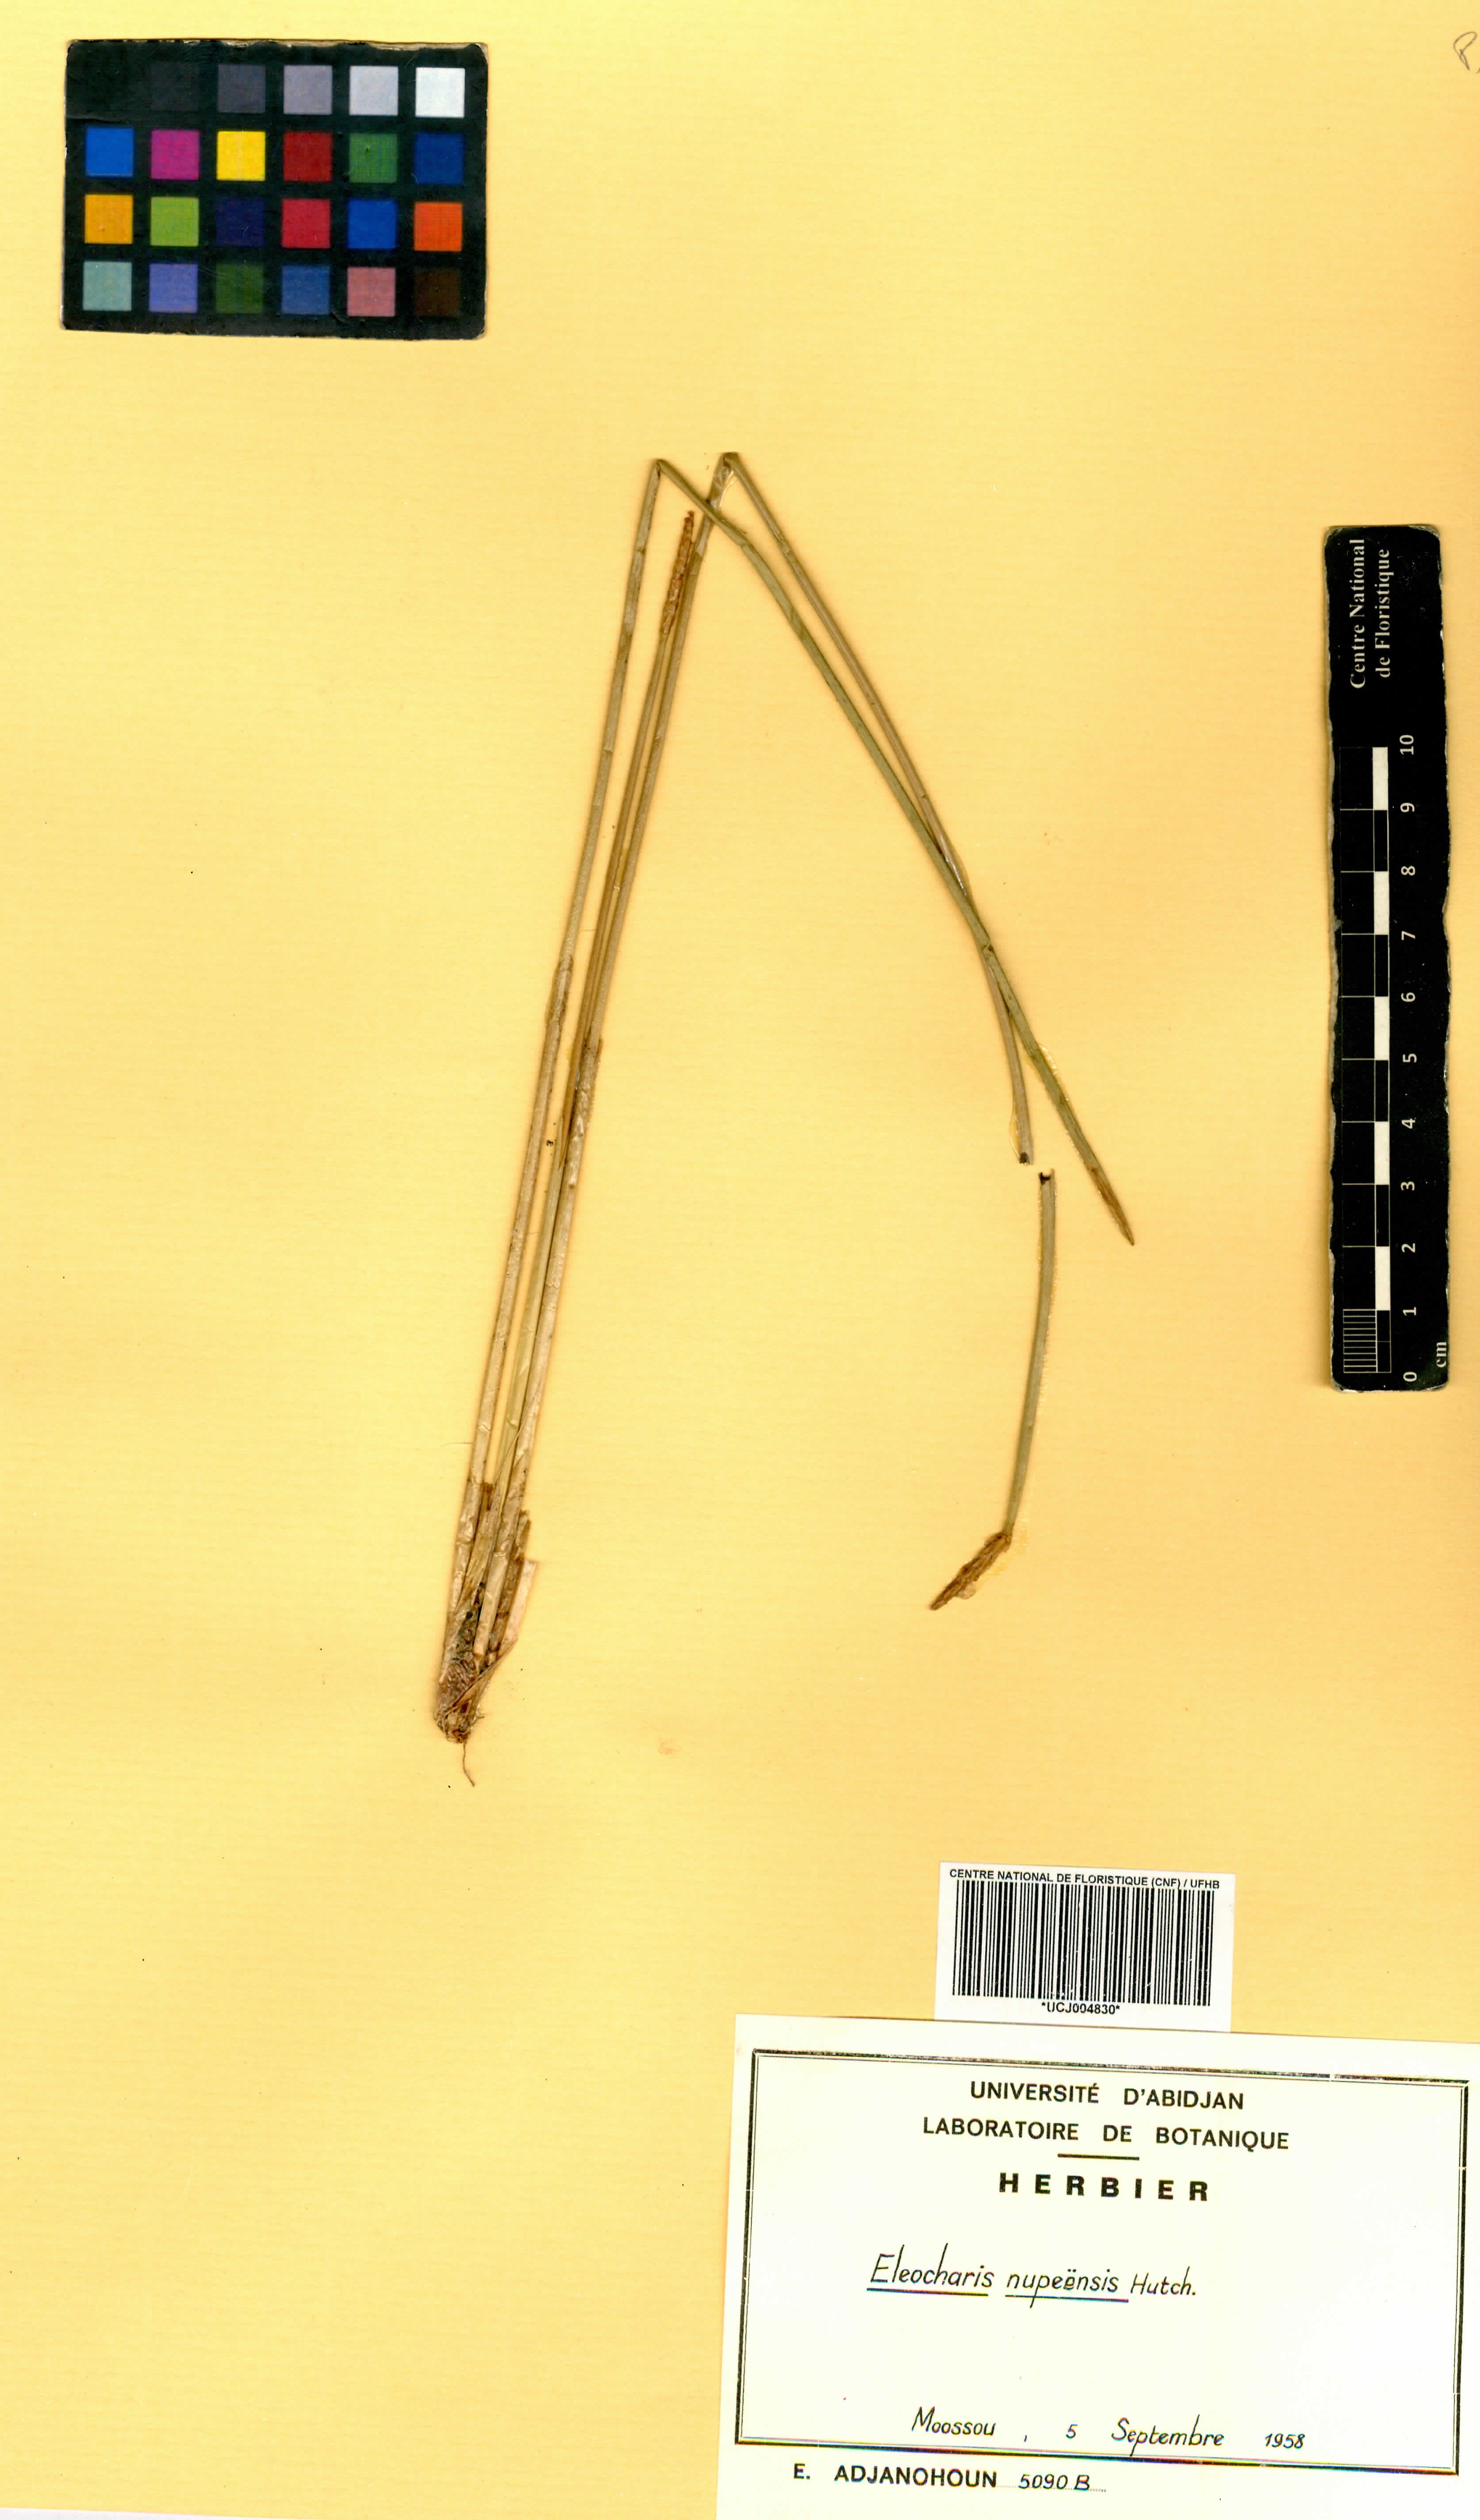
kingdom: Plantae
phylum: Tracheophyta
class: Liliopsida
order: Poales
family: Cyperaceae
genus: Eleocharis
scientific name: Eleocharis nupeensis
